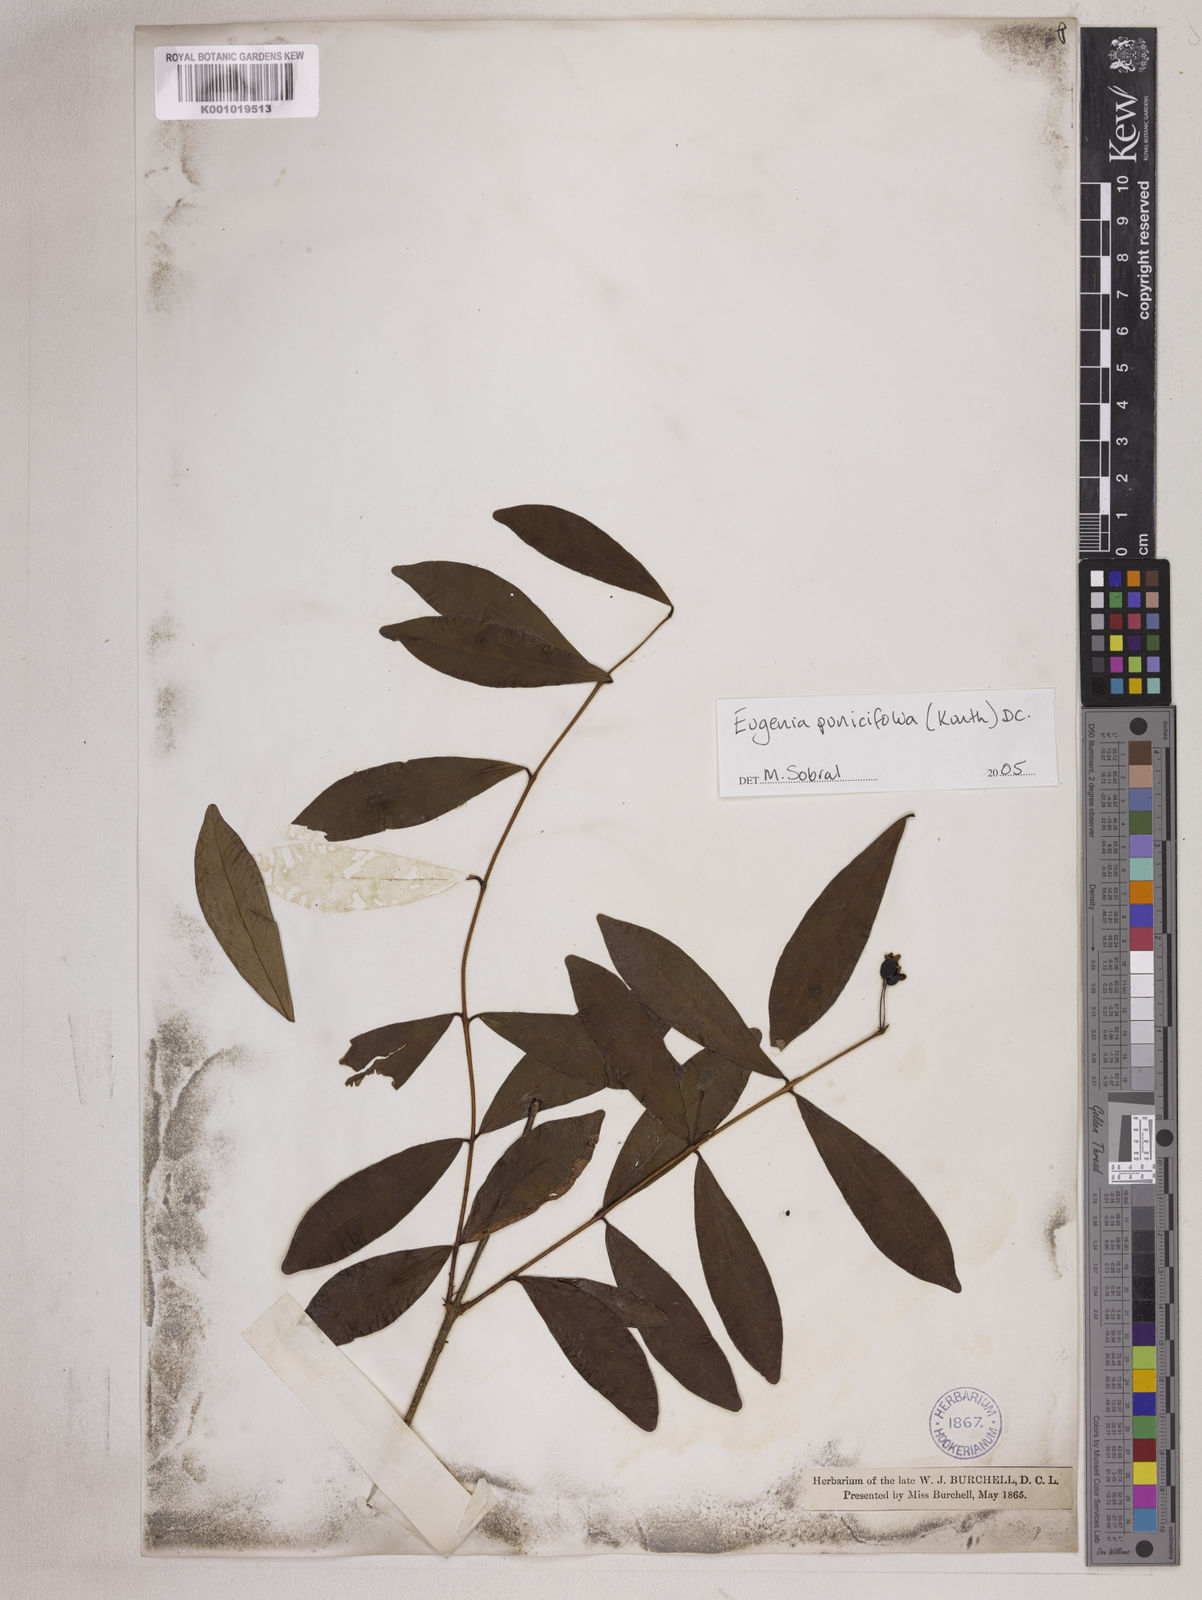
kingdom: Plantae
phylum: Tracheophyta
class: Magnoliopsida
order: Myrtales
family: Myrtaceae
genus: Eugenia
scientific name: Eugenia punicifolia
